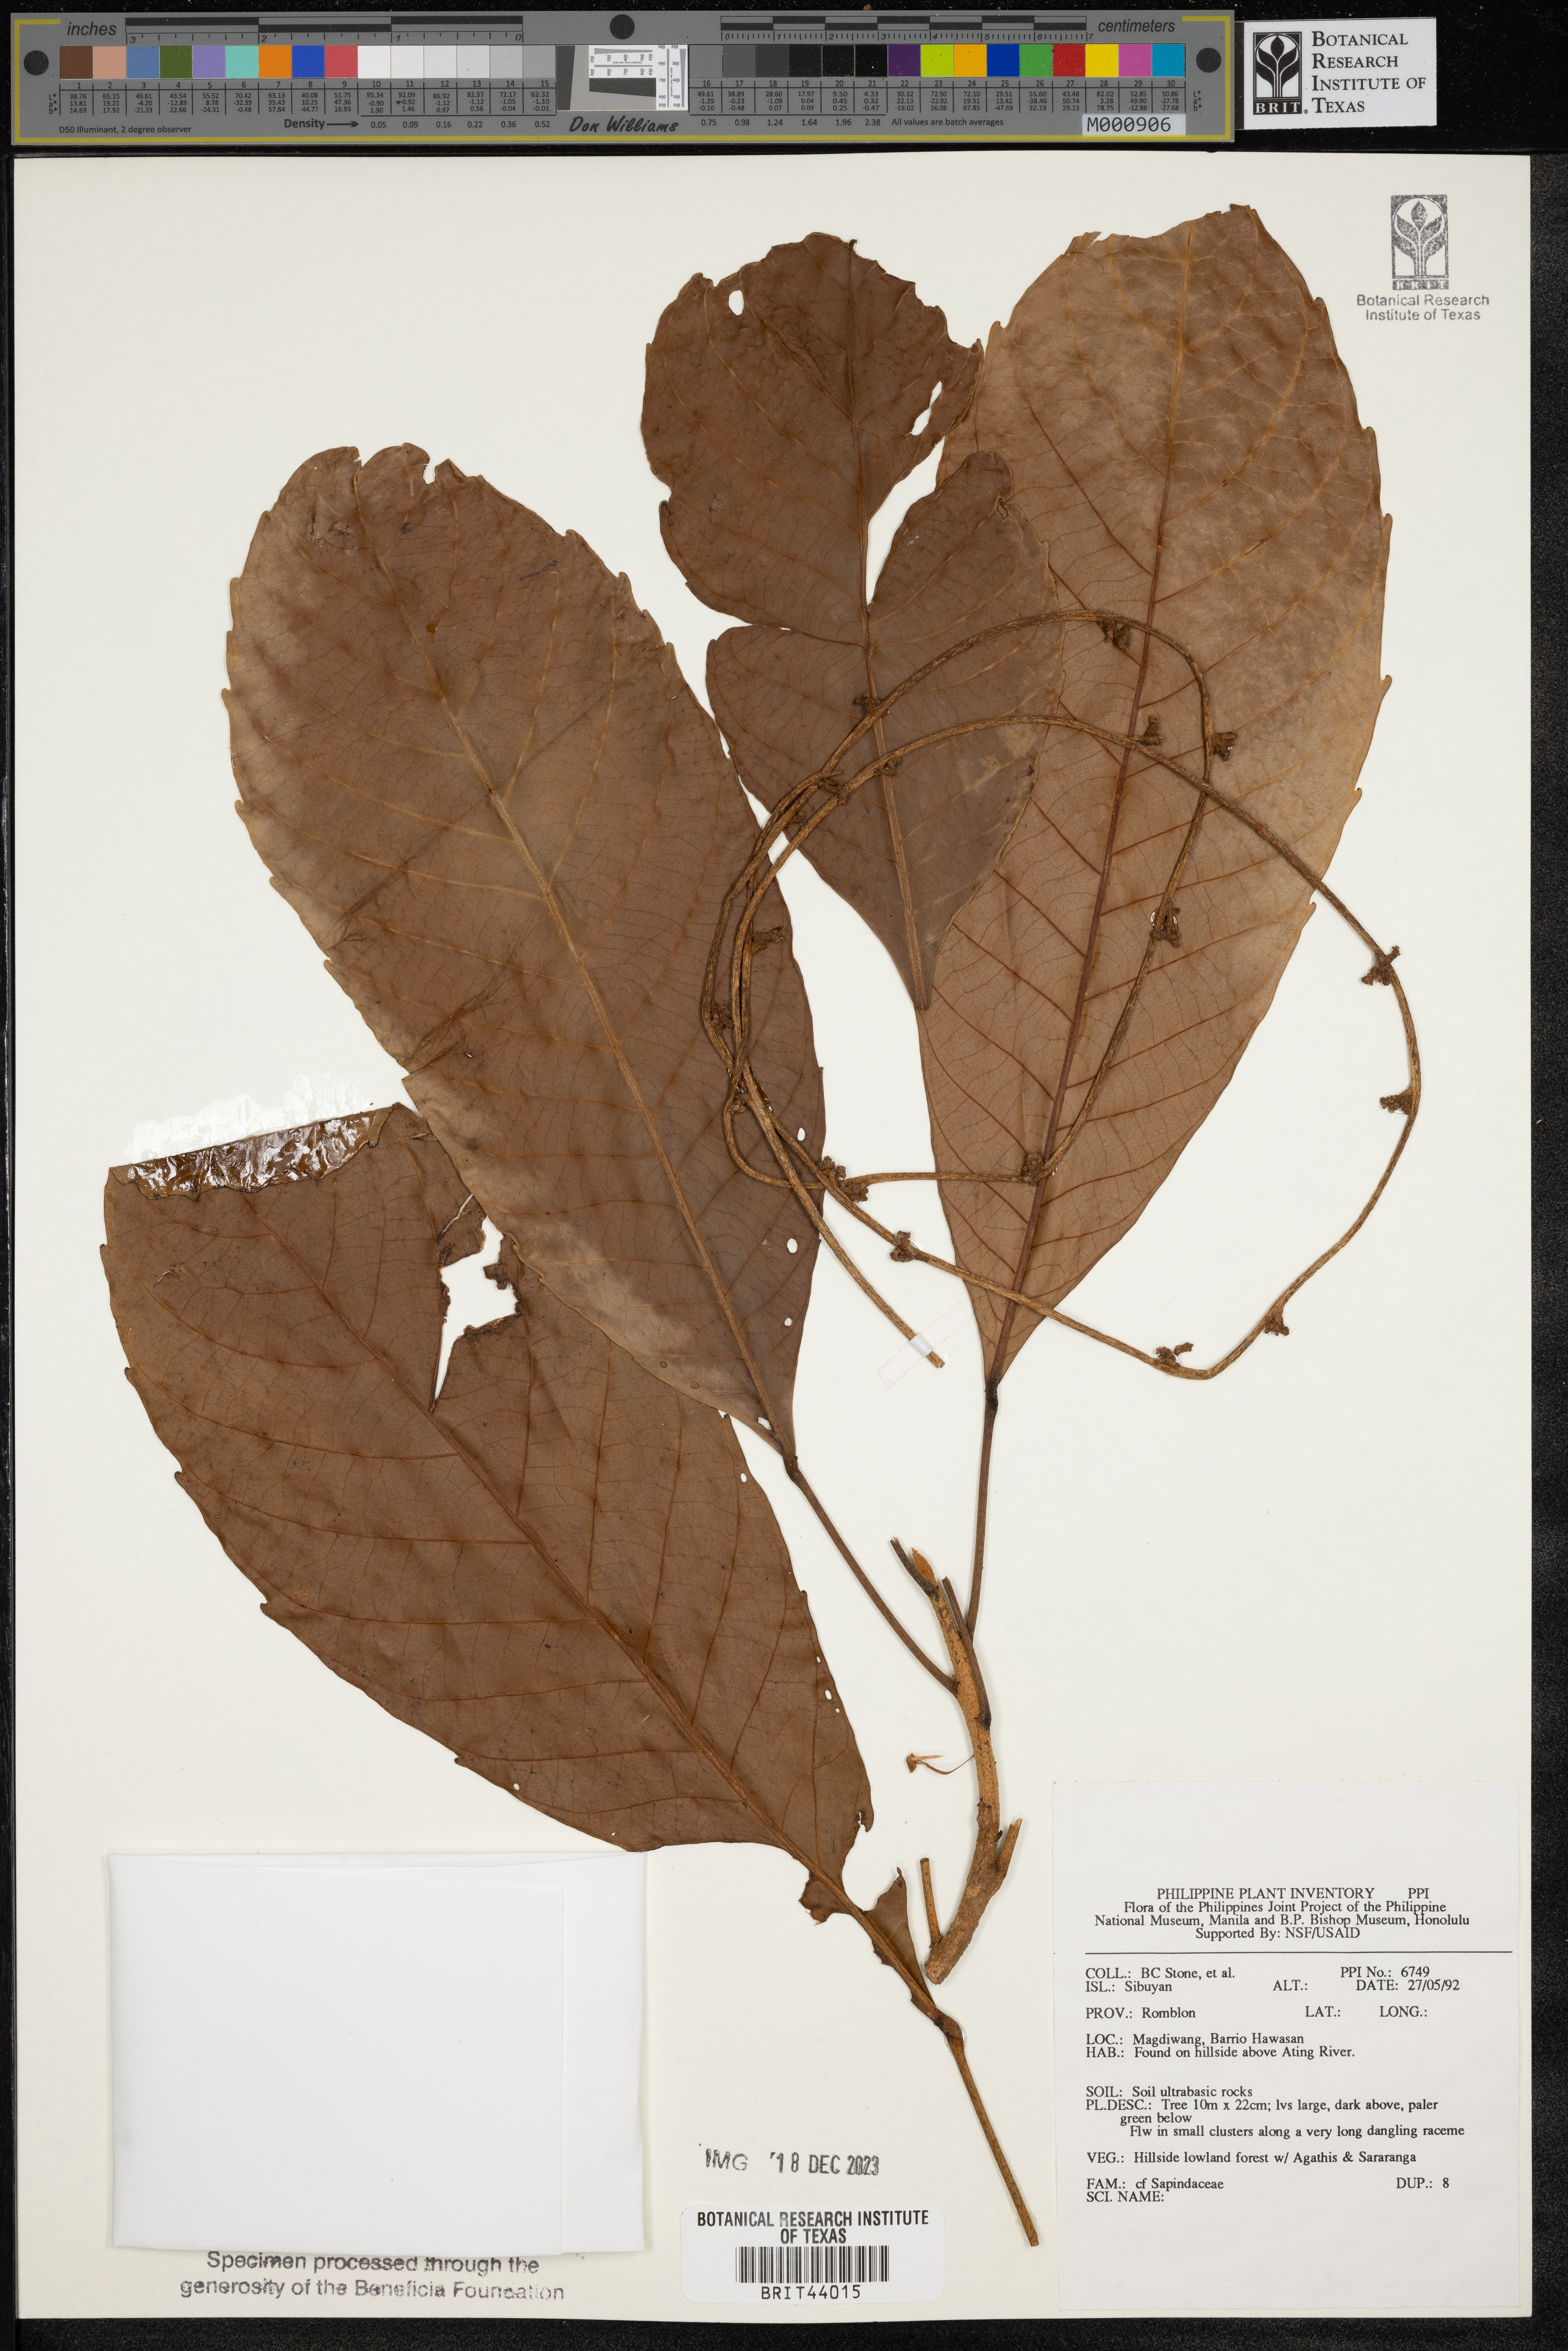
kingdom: Plantae
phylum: Tracheophyta
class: Magnoliopsida
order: Sapindales
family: Sapindaceae
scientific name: Sapindaceae
